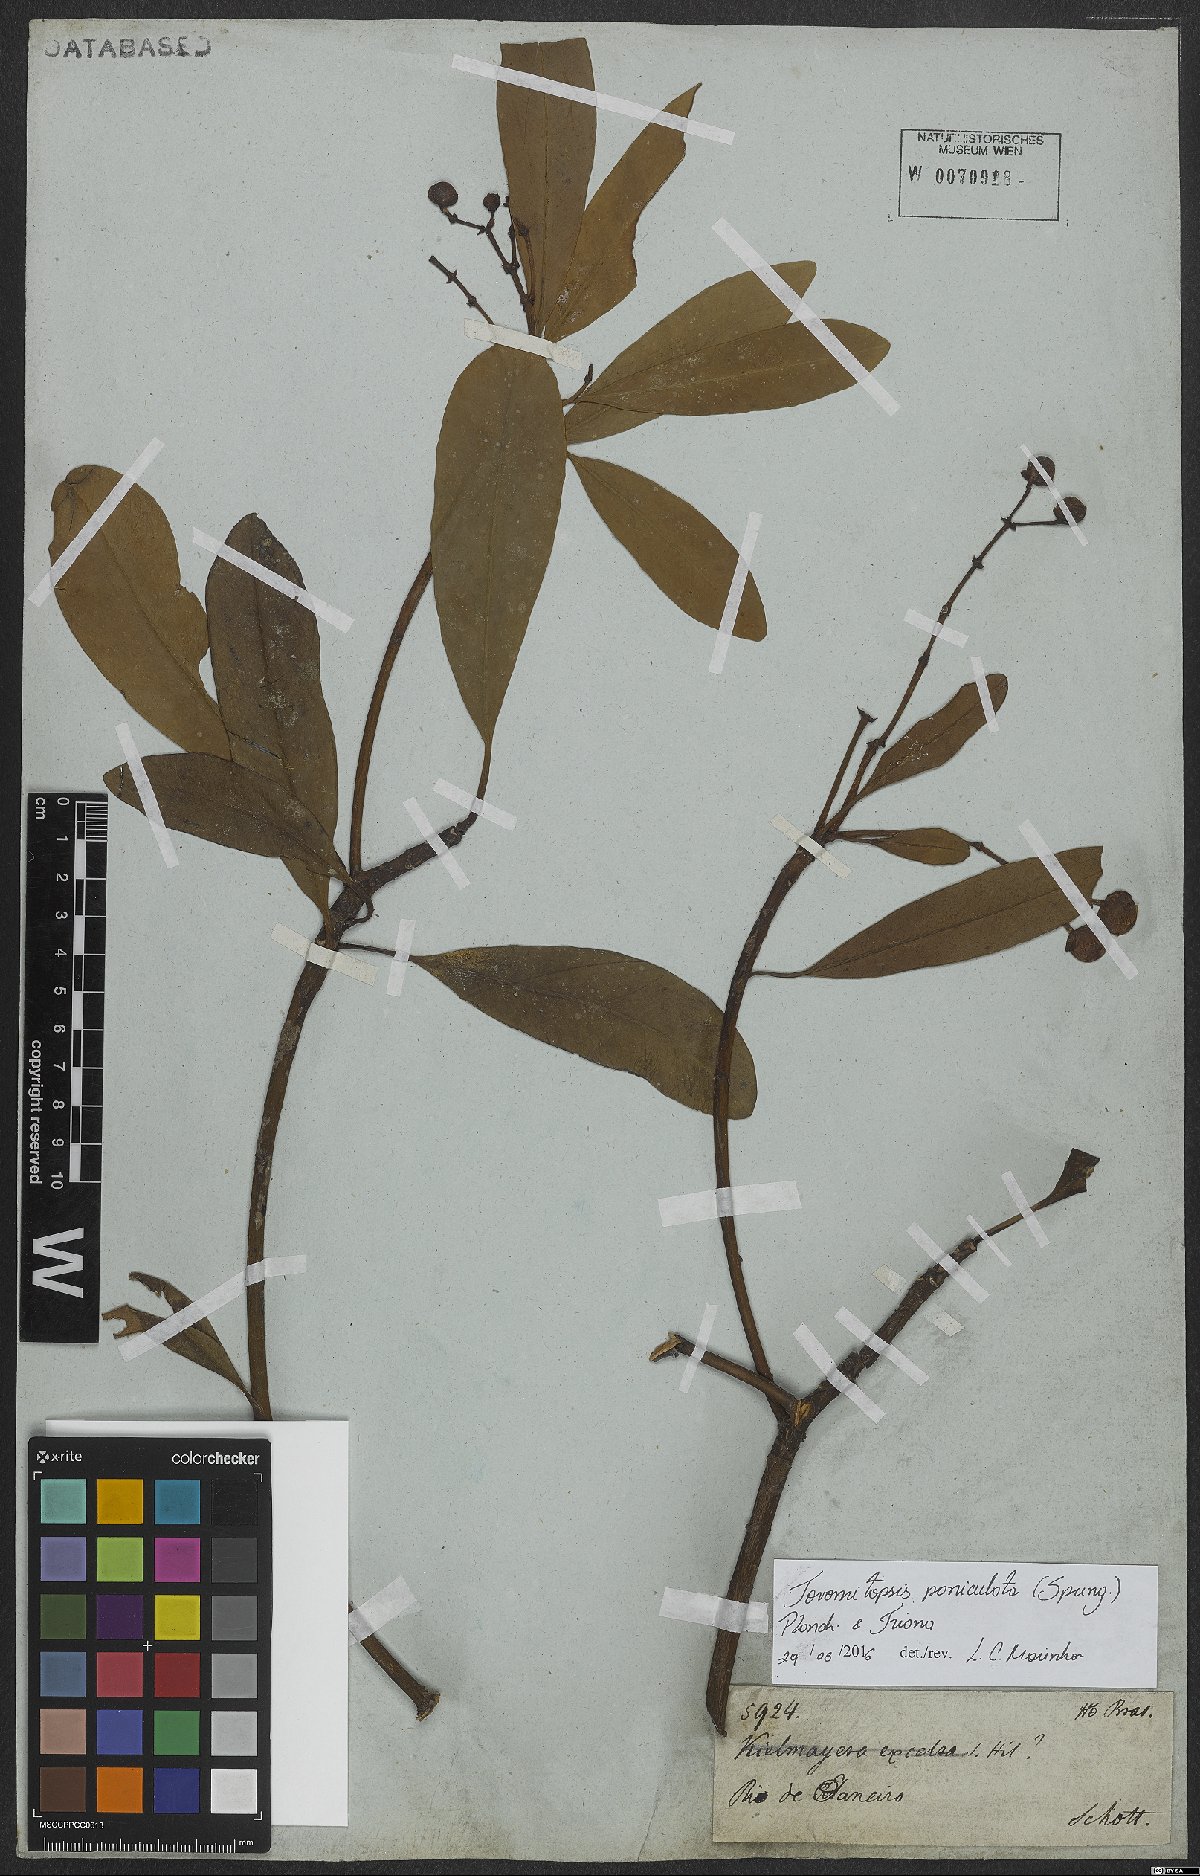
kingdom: Plantae
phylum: Tracheophyta
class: Magnoliopsida
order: Malpighiales
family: Clusiaceae
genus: Chrysochlamys
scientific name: Chrysochlamys paniculata
